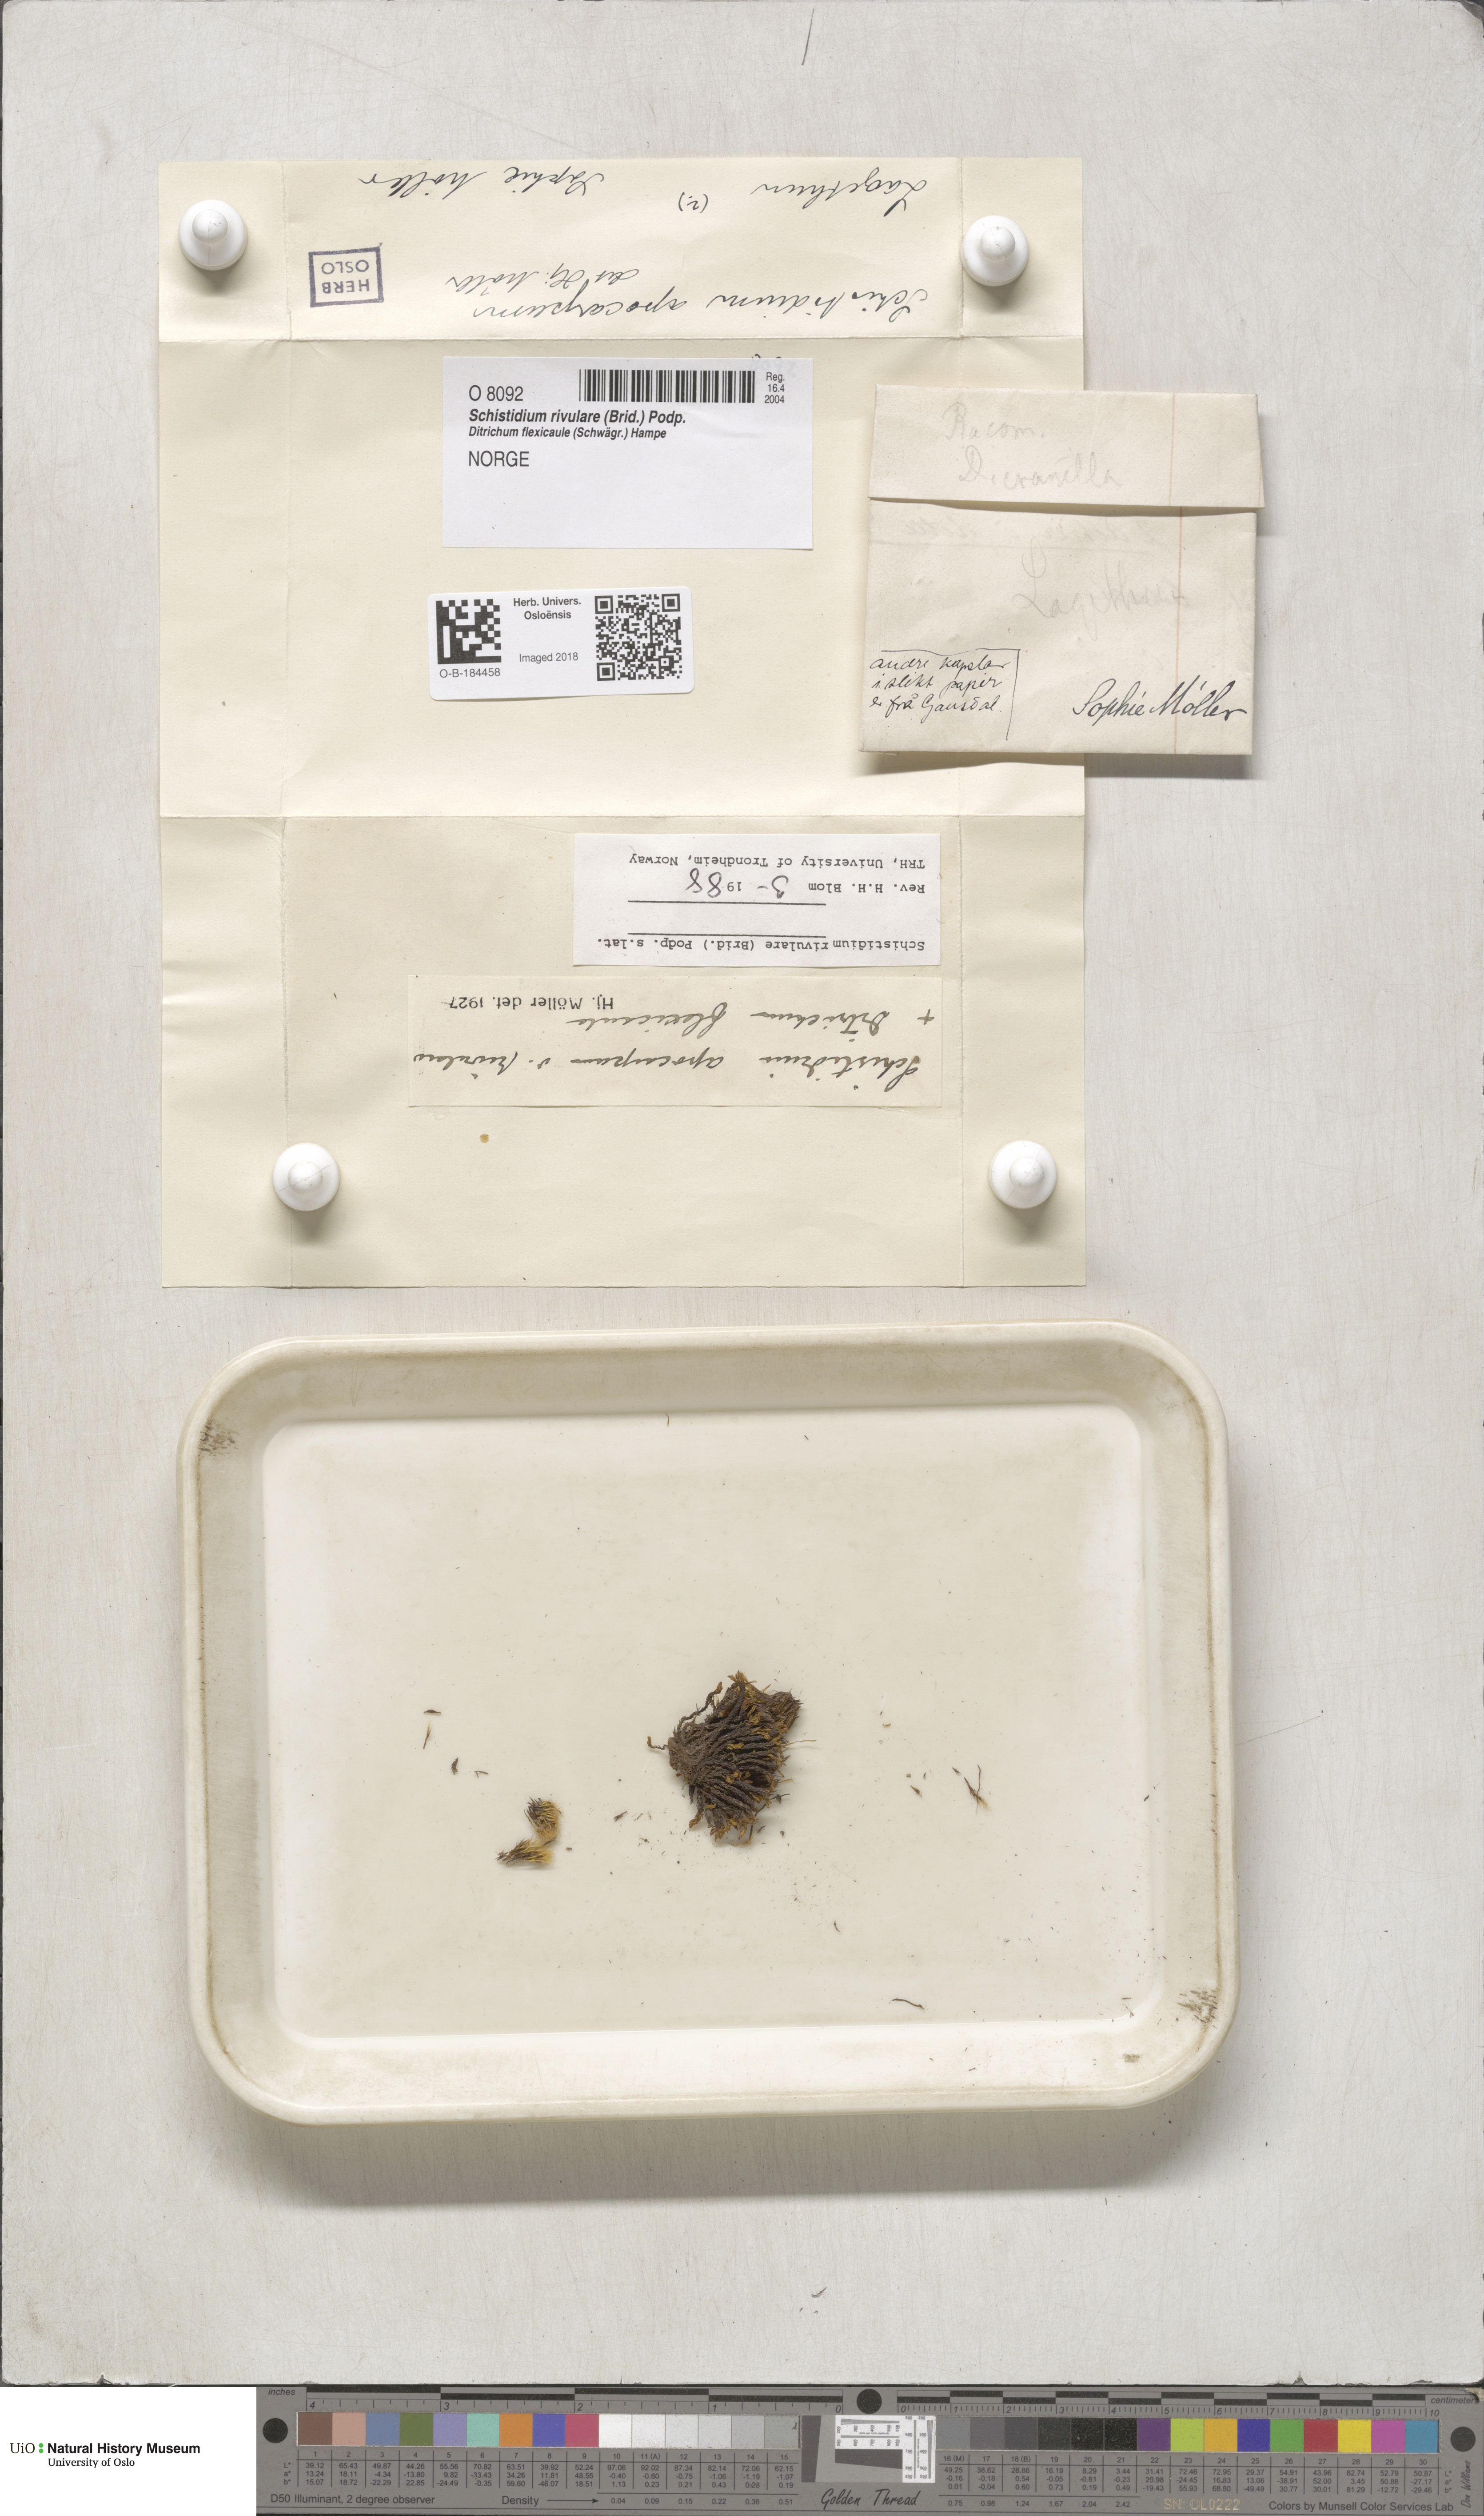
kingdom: Plantae
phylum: Bryophyta
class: Bryopsida
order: Grimmiales
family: Grimmiaceae
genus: Schistidium
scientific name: Schistidium rivulare
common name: River bloom moss
